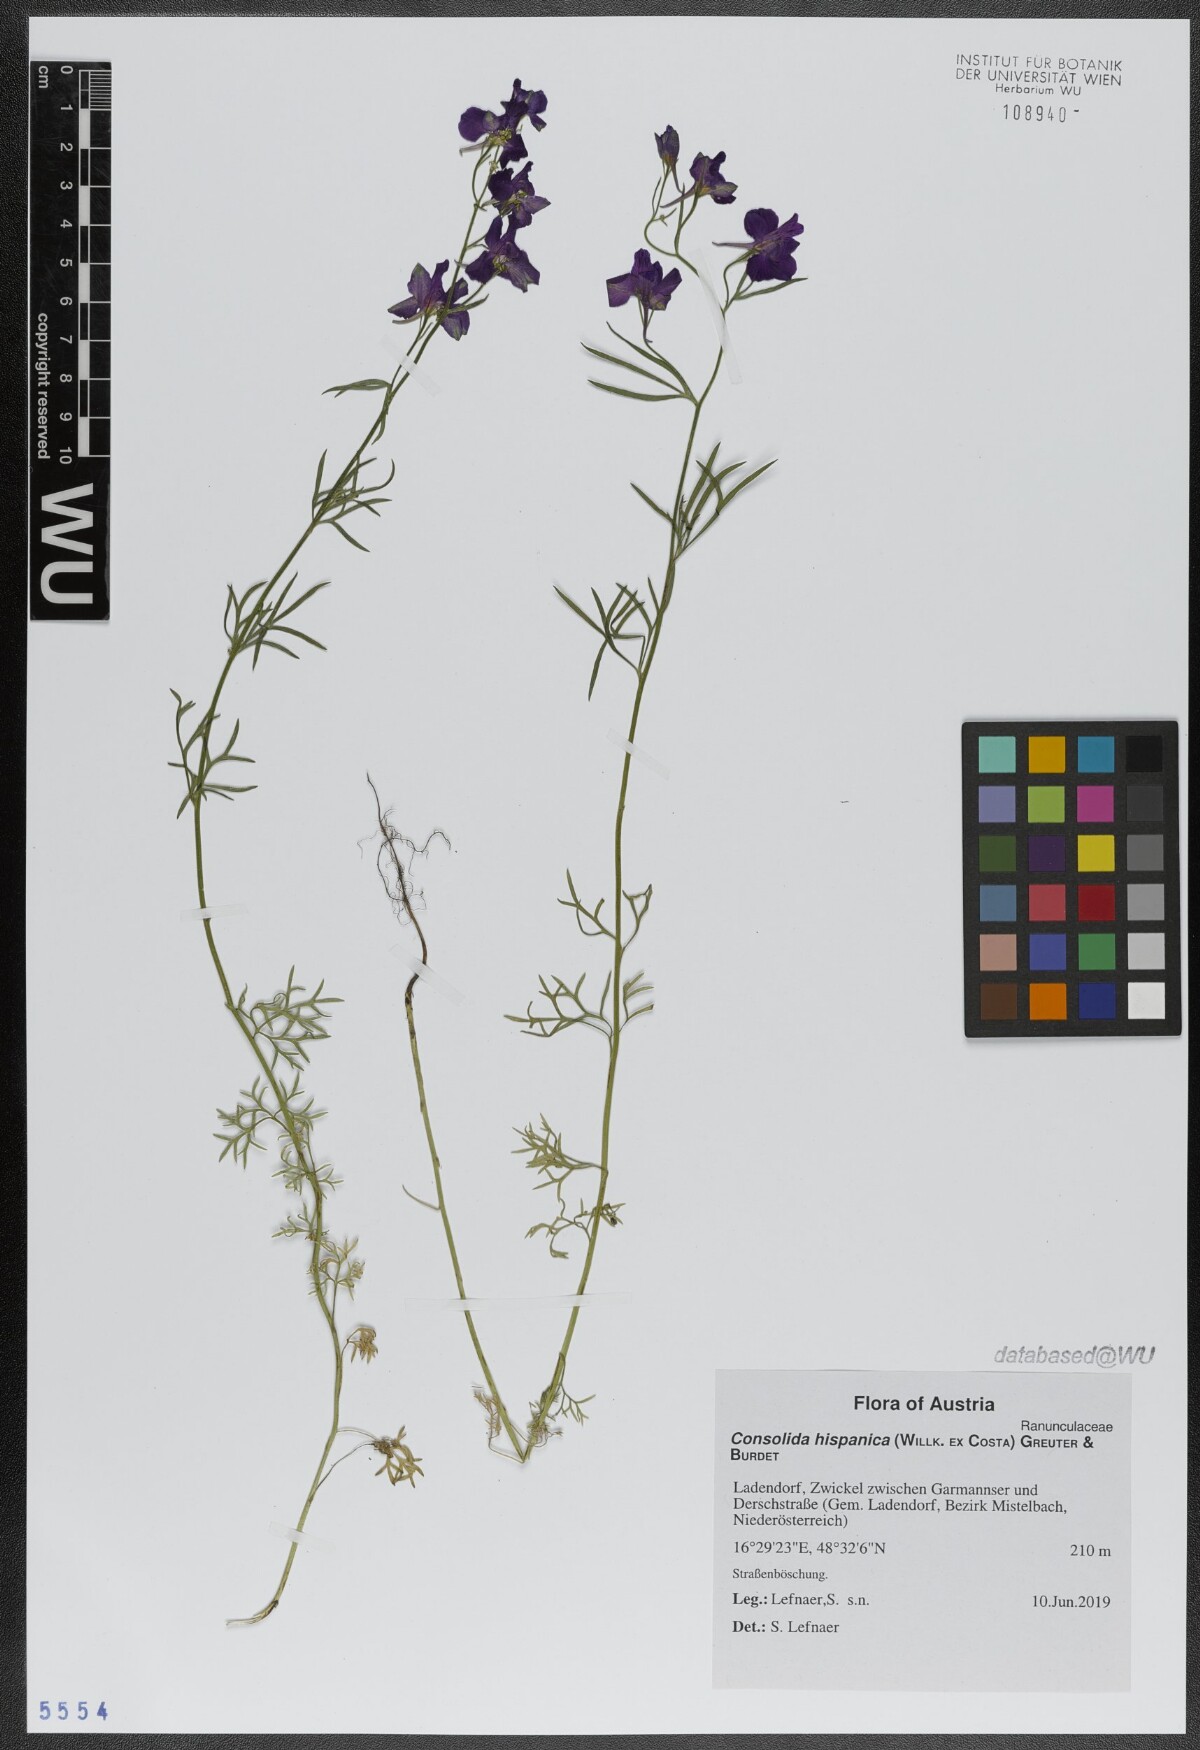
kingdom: Plantae
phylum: Tracheophyta
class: Magnoliopsida
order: Ranunculales
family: Ranunculaceae
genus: Delphinium
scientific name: Delphinium hispanicum
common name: Oriental knight's-spur
